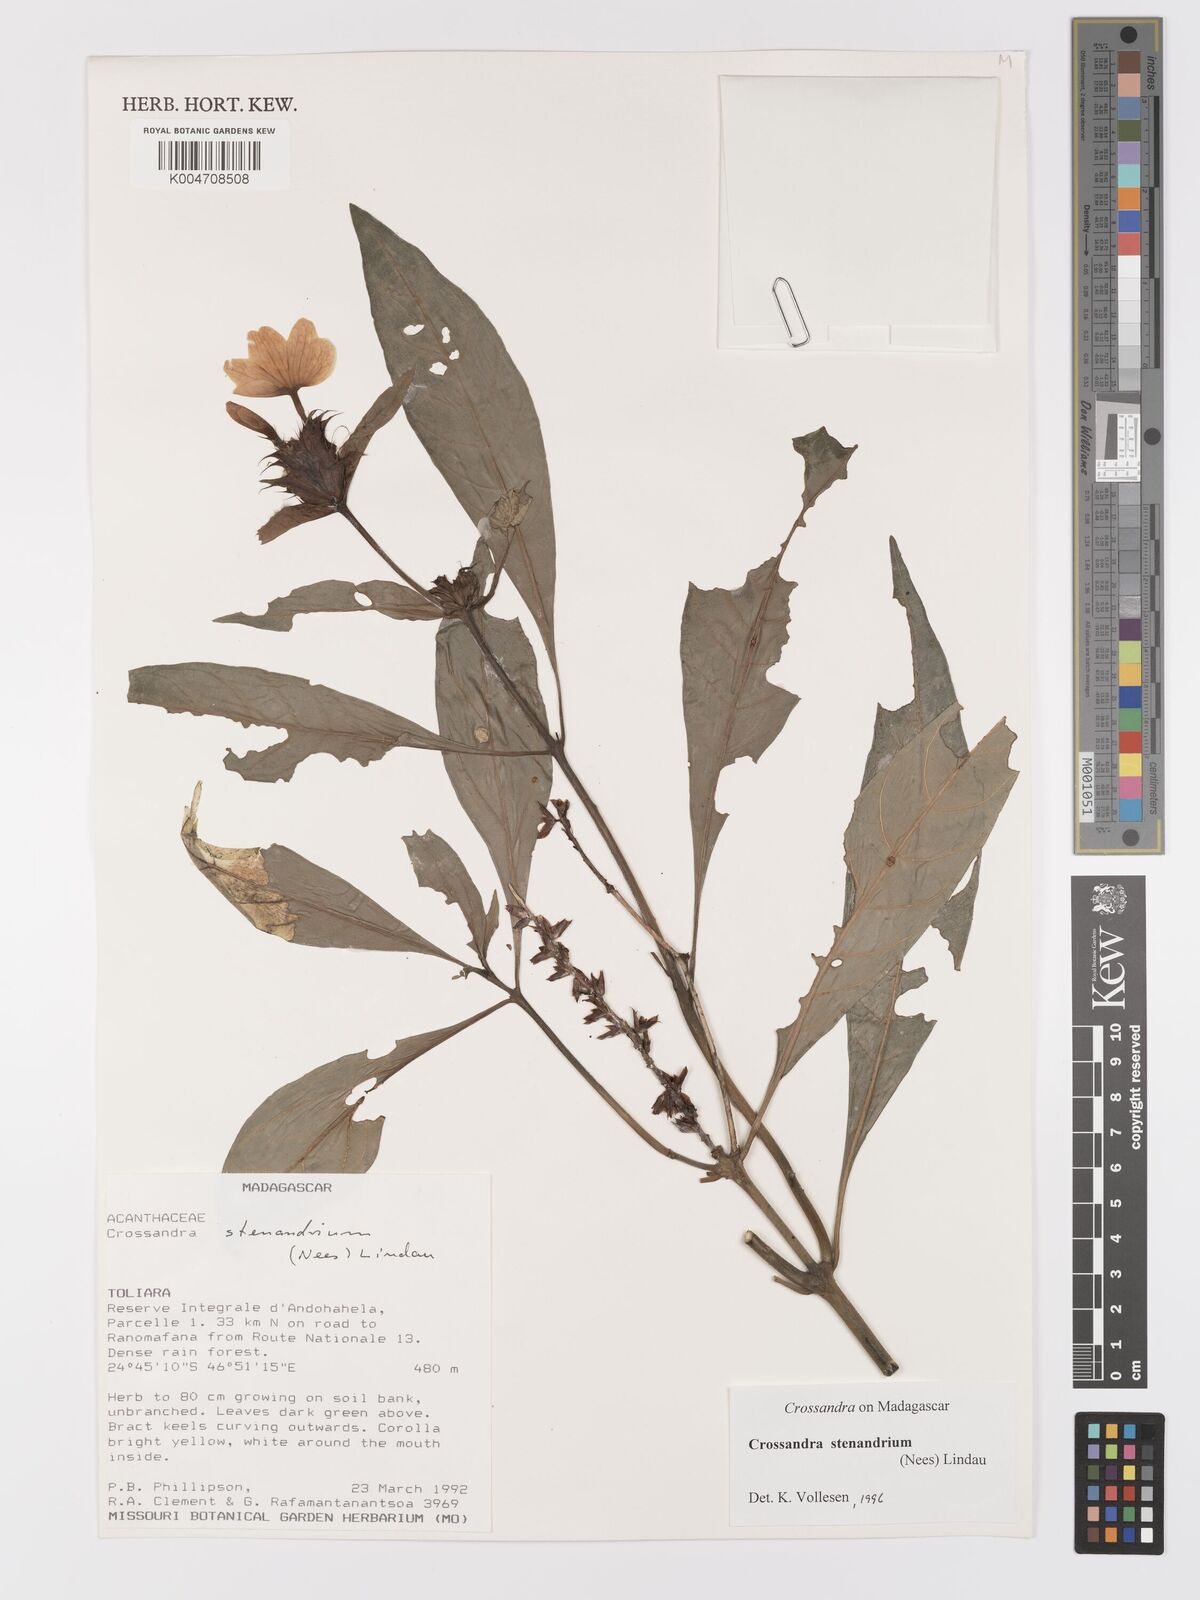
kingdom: Plantae
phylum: Tracheophyta
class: Magnoliopsida
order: Lamiales
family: Acanthaceae
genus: Crossandra
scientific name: Crossandra stenandrium
